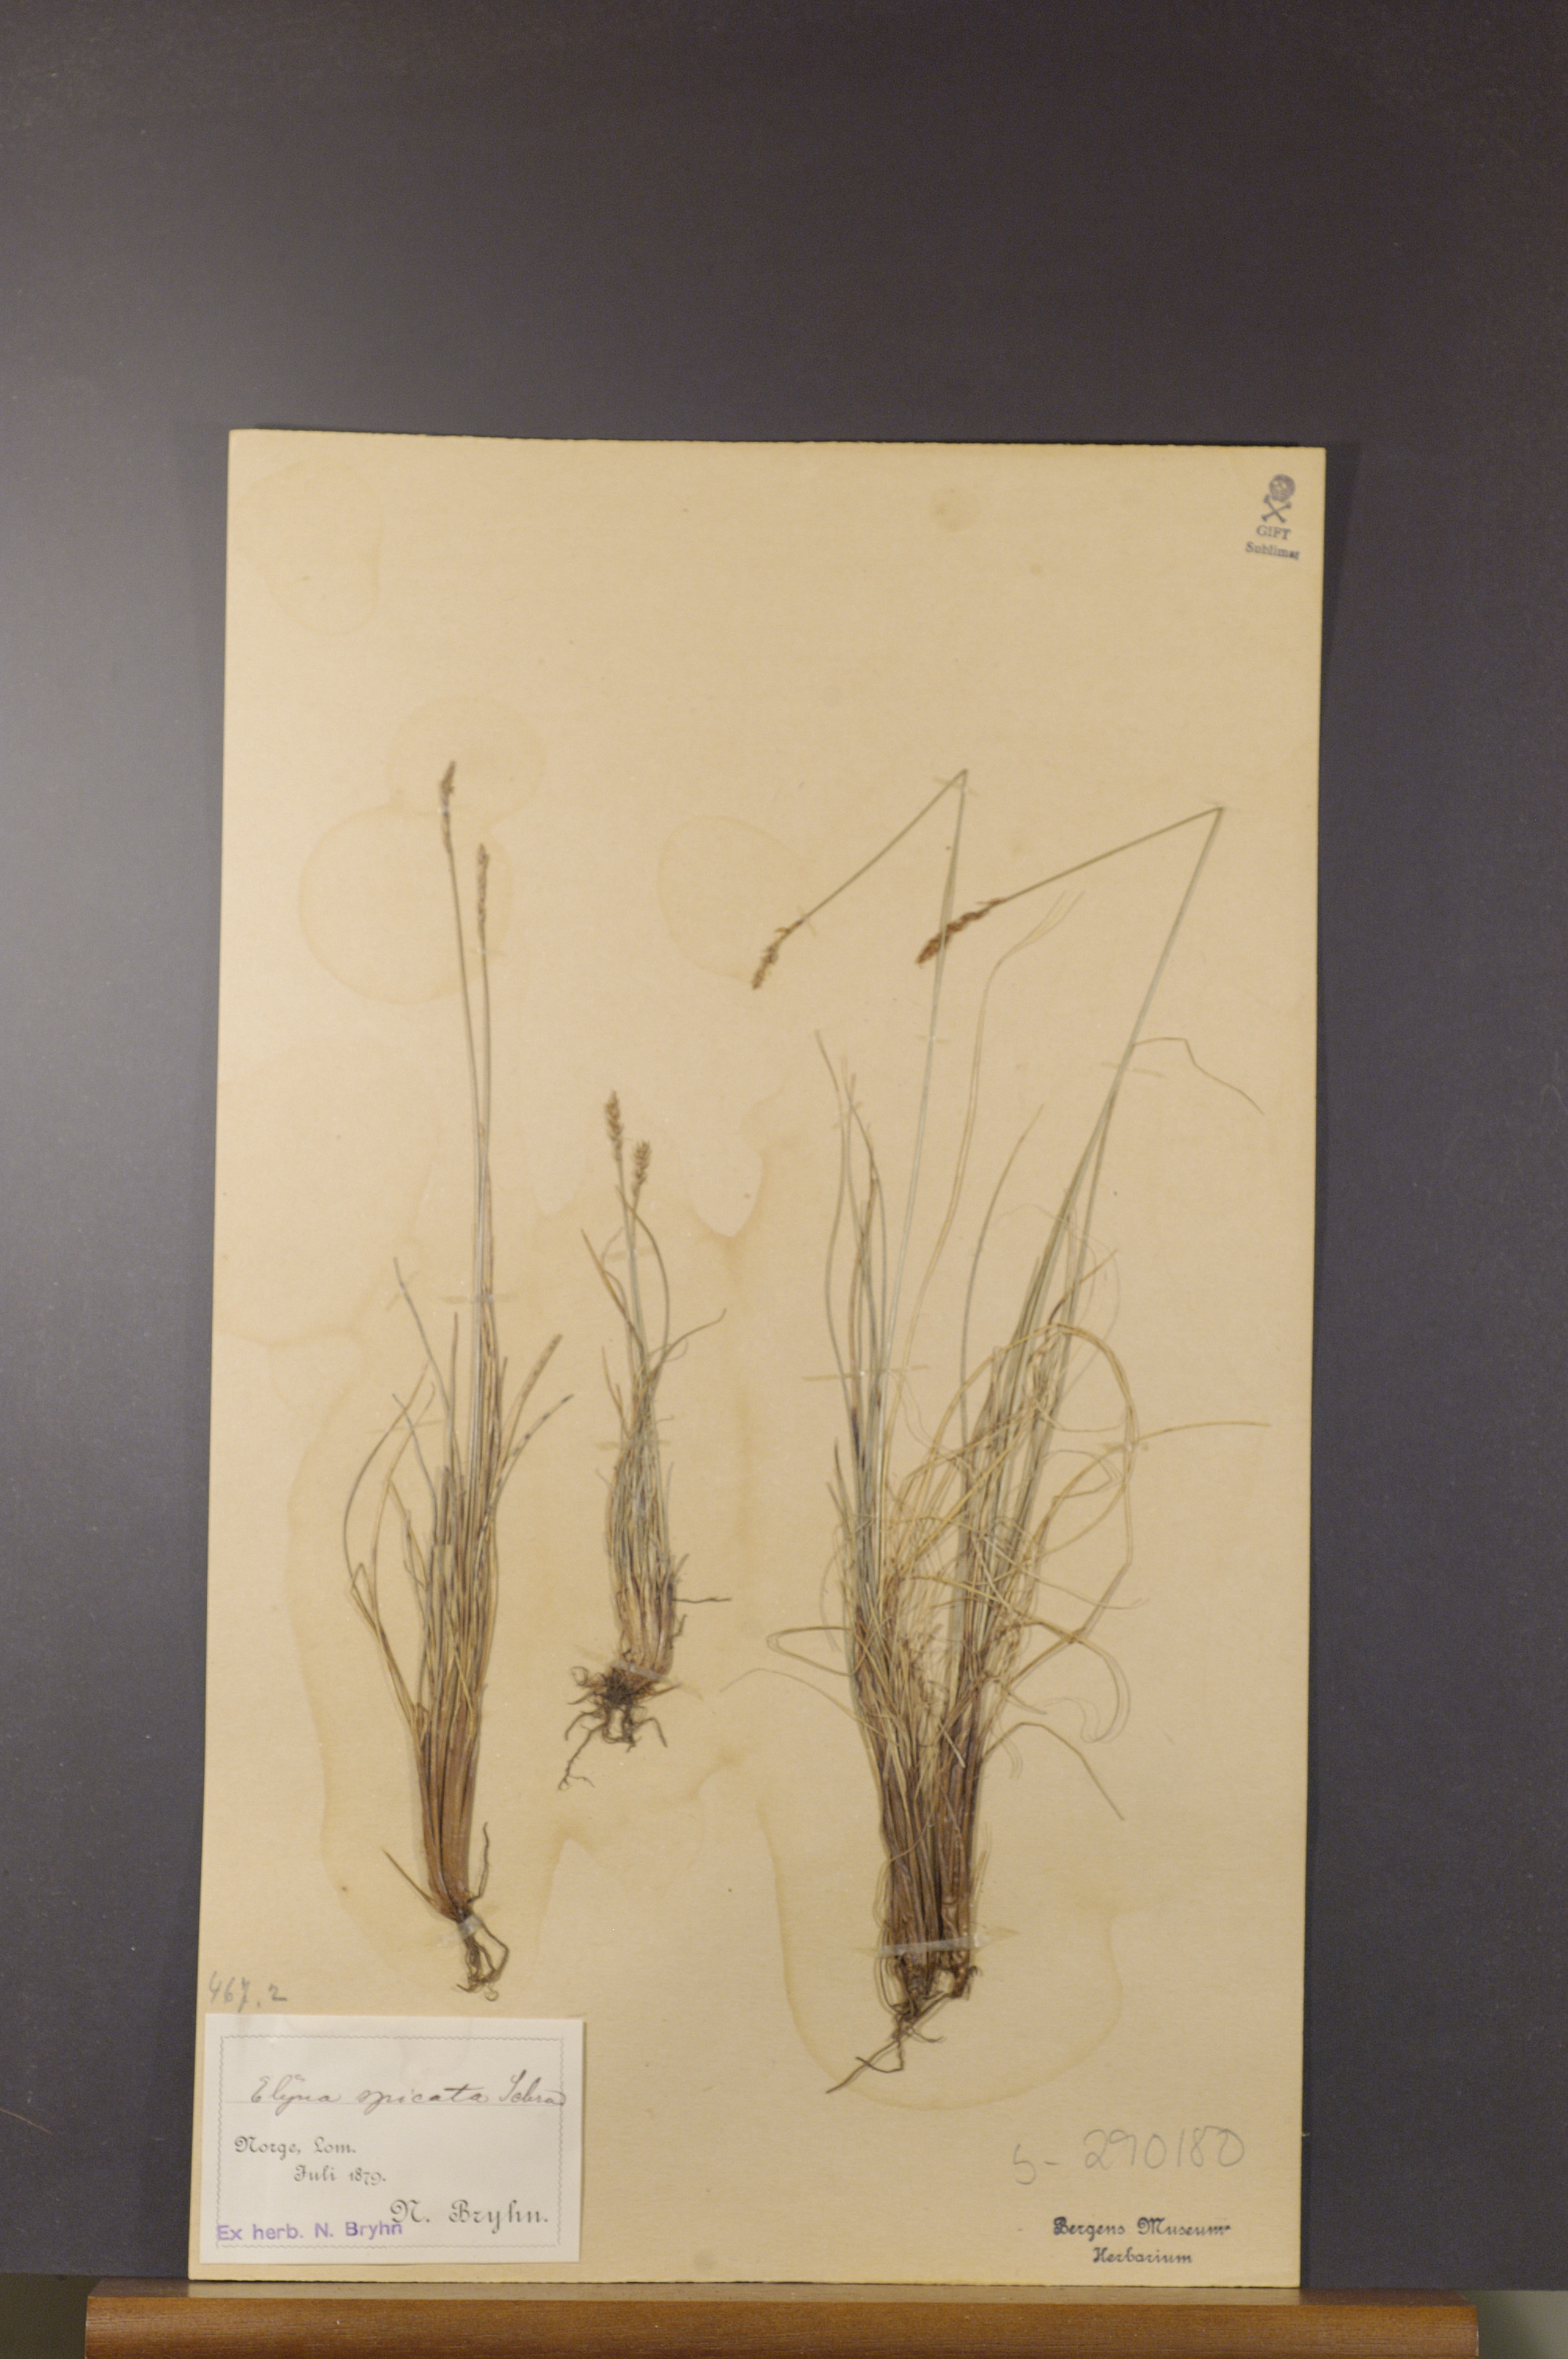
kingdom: Plantae
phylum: Tracheophyta
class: Liliopsida
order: Poales
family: Cyperaceae
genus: Carex
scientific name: Carex myosuroides
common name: Bellard's bog sedge
